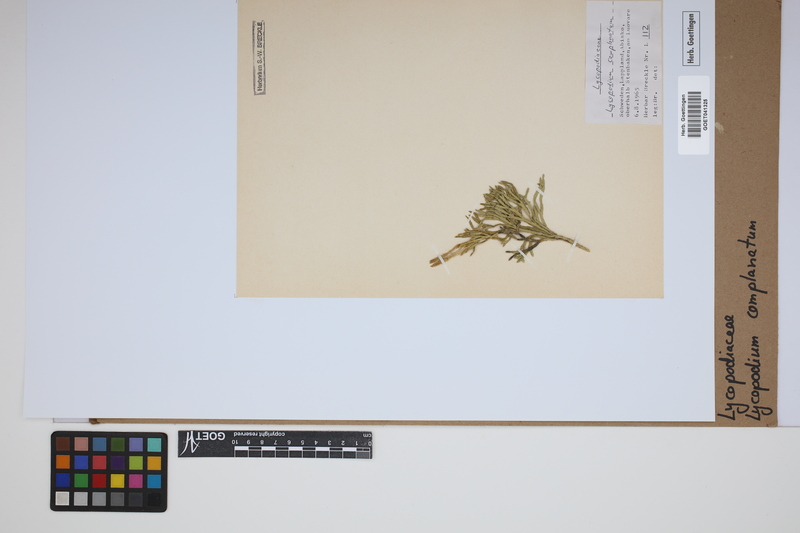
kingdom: Plantae
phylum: Tracheophyta
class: Lycopodiopsida
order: Lycopodiales
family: Lycopodiaceae
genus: Diphasiastrum
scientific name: Diphasiastrum complanatum
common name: Northern running-pine
